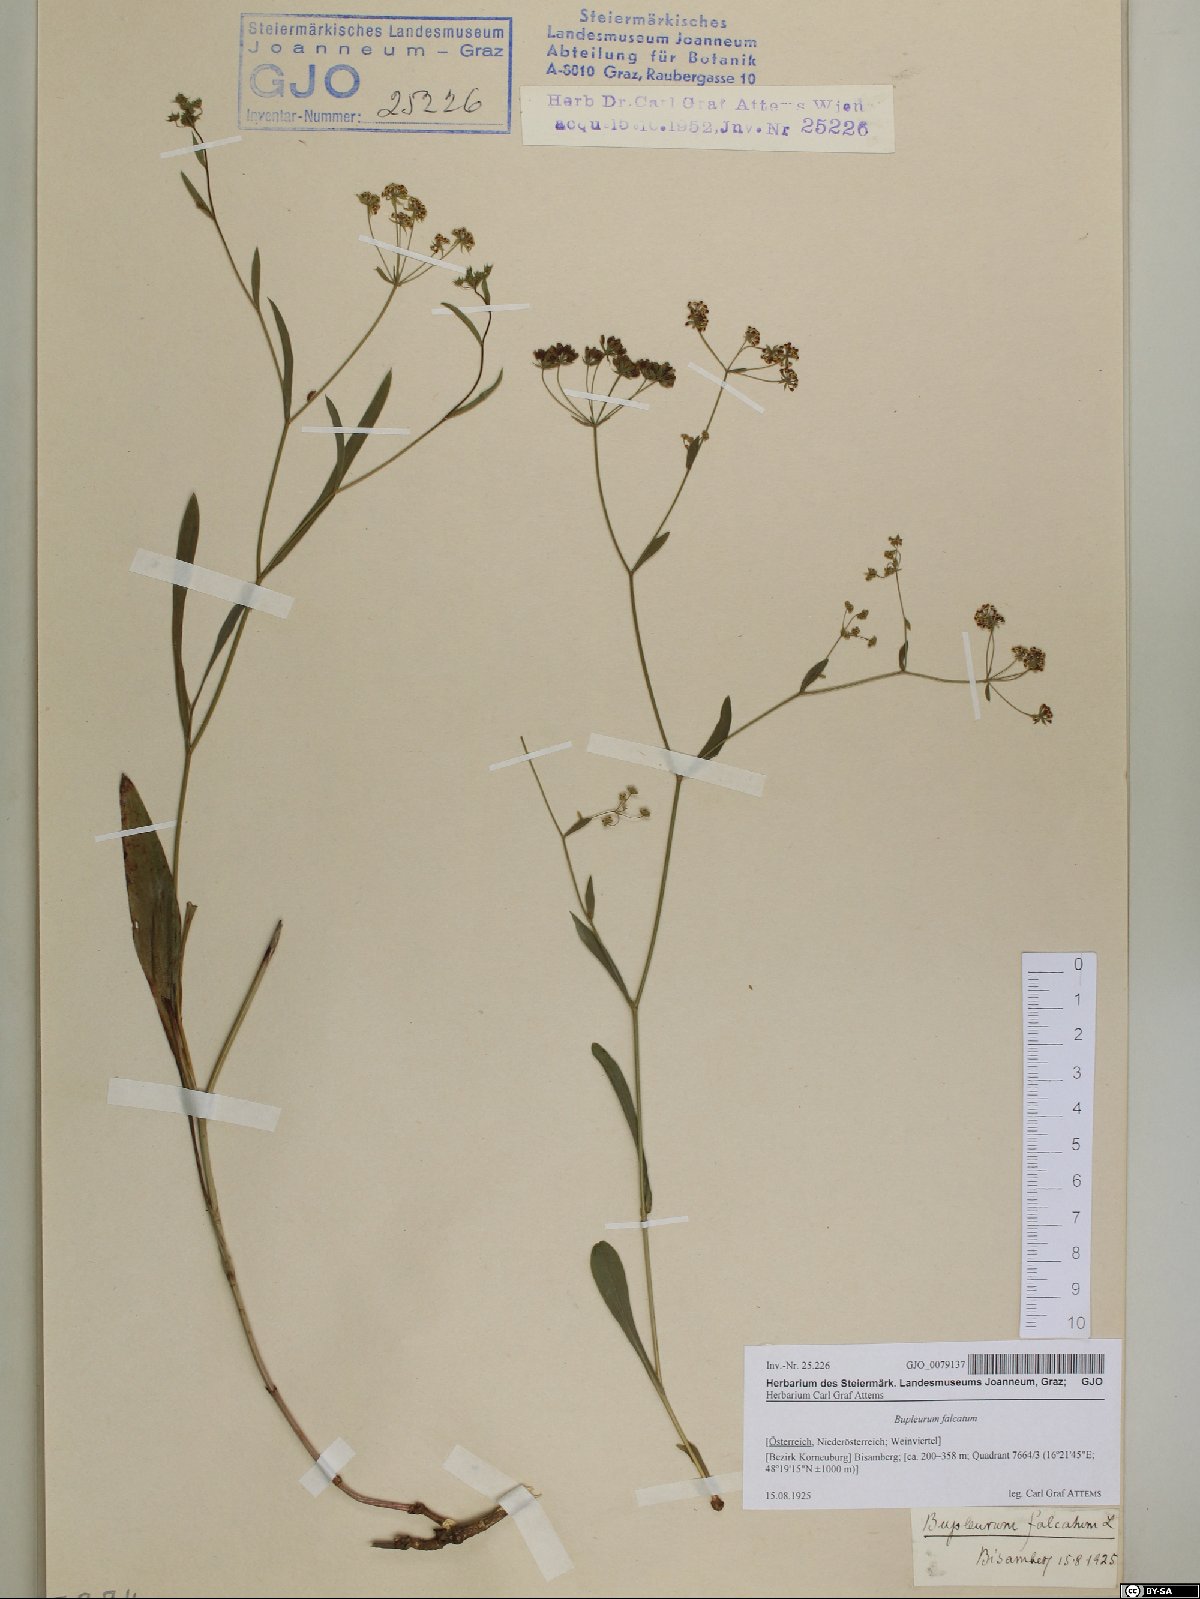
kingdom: Plantae
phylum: Tracheophyta
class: Magnoliopsida
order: Apiales
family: Apiaceae
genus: Bupleurum
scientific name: Bupleurum falcatum
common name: Sickle-leaved hare's-ear
